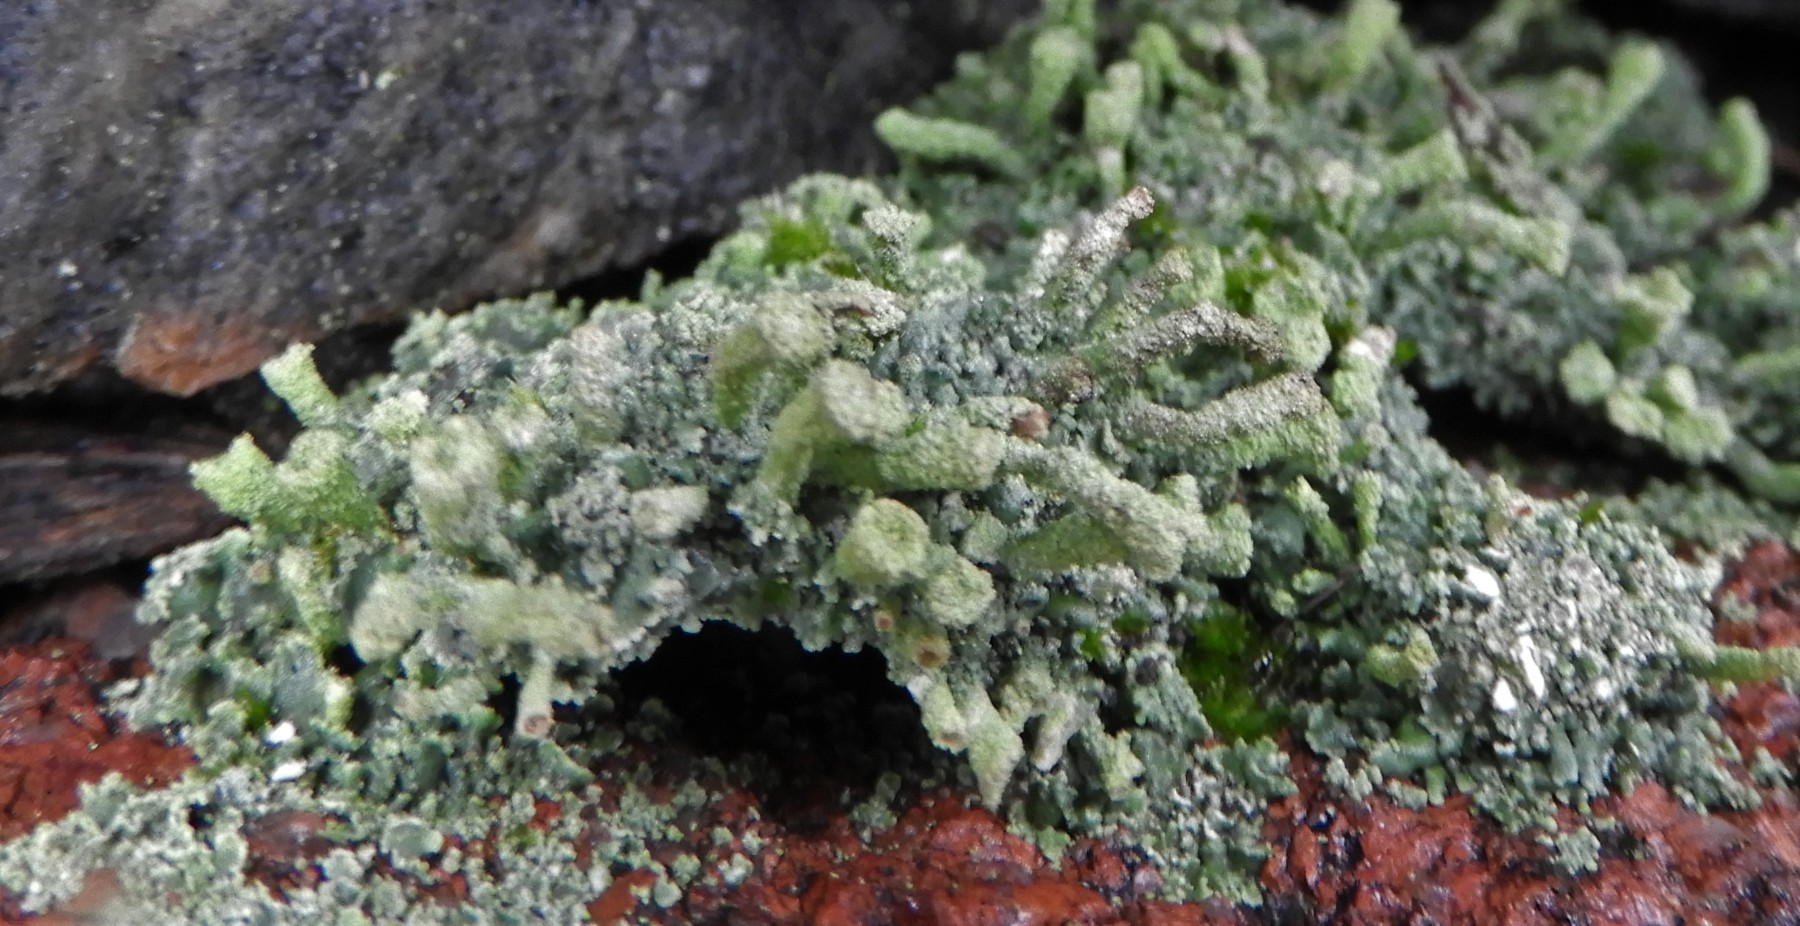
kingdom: Fungi
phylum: Ascomycota
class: Lecanoromycetes
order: Lecanorales
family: Cladoniaceae
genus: Cladonia
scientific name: Cladonia
